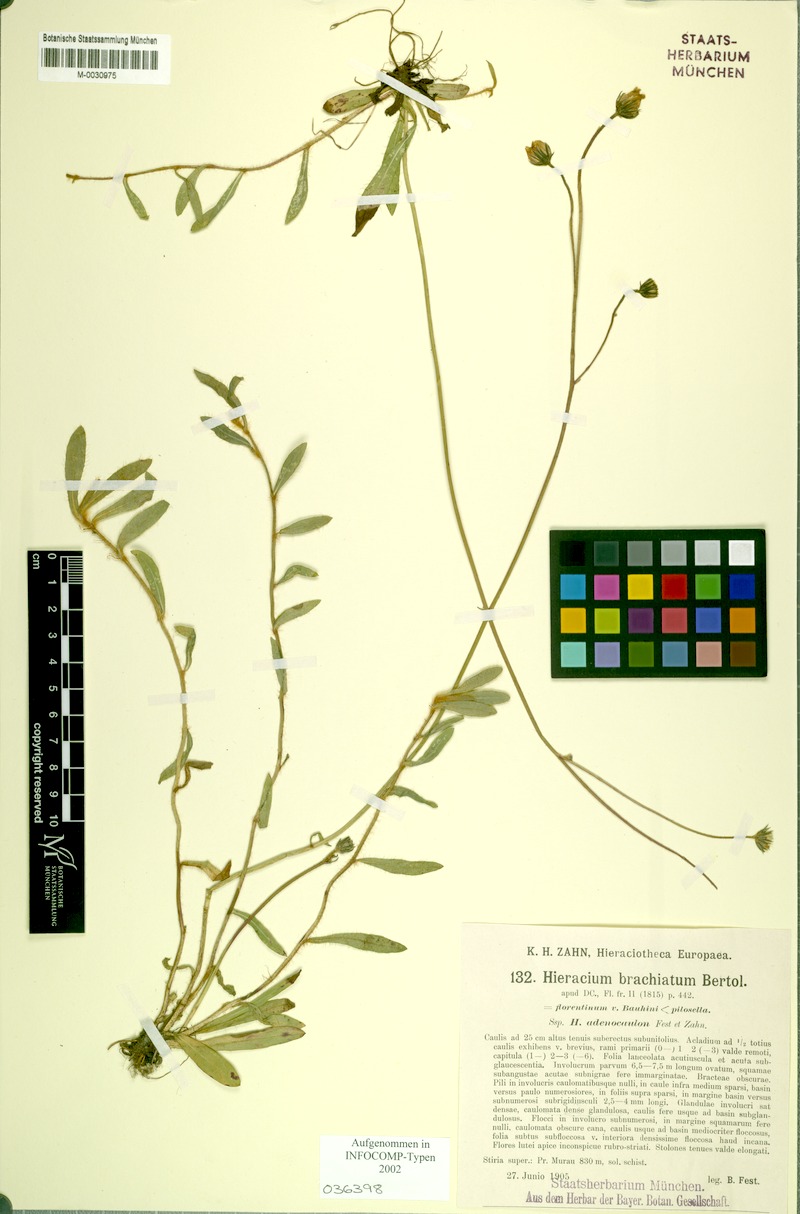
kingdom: Plantae
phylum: Tracheophyta
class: Magnoliopsida
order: Asterales
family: Asteraceae
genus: Pilosella
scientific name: Pilosella acutifolia
